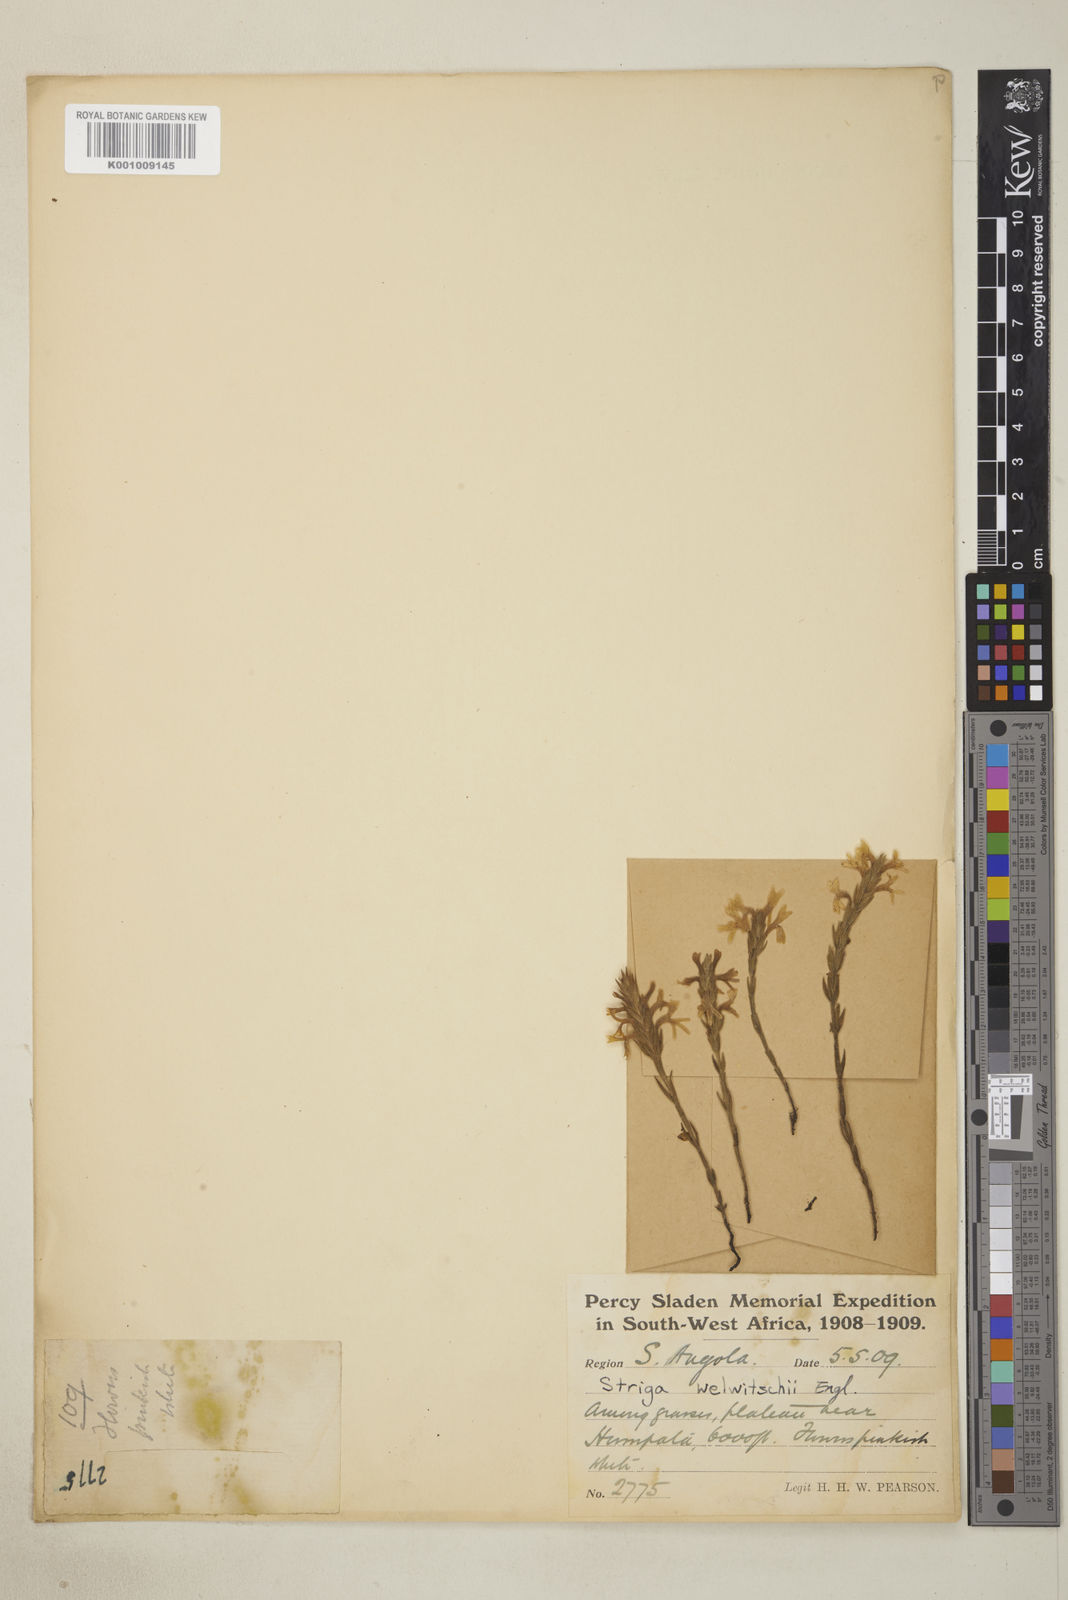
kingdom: Plantae
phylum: Tracheophyta
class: Magnoliopsida
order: Lamiales
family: Orobanchaceae
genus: Striga
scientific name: Striga bilabiata
